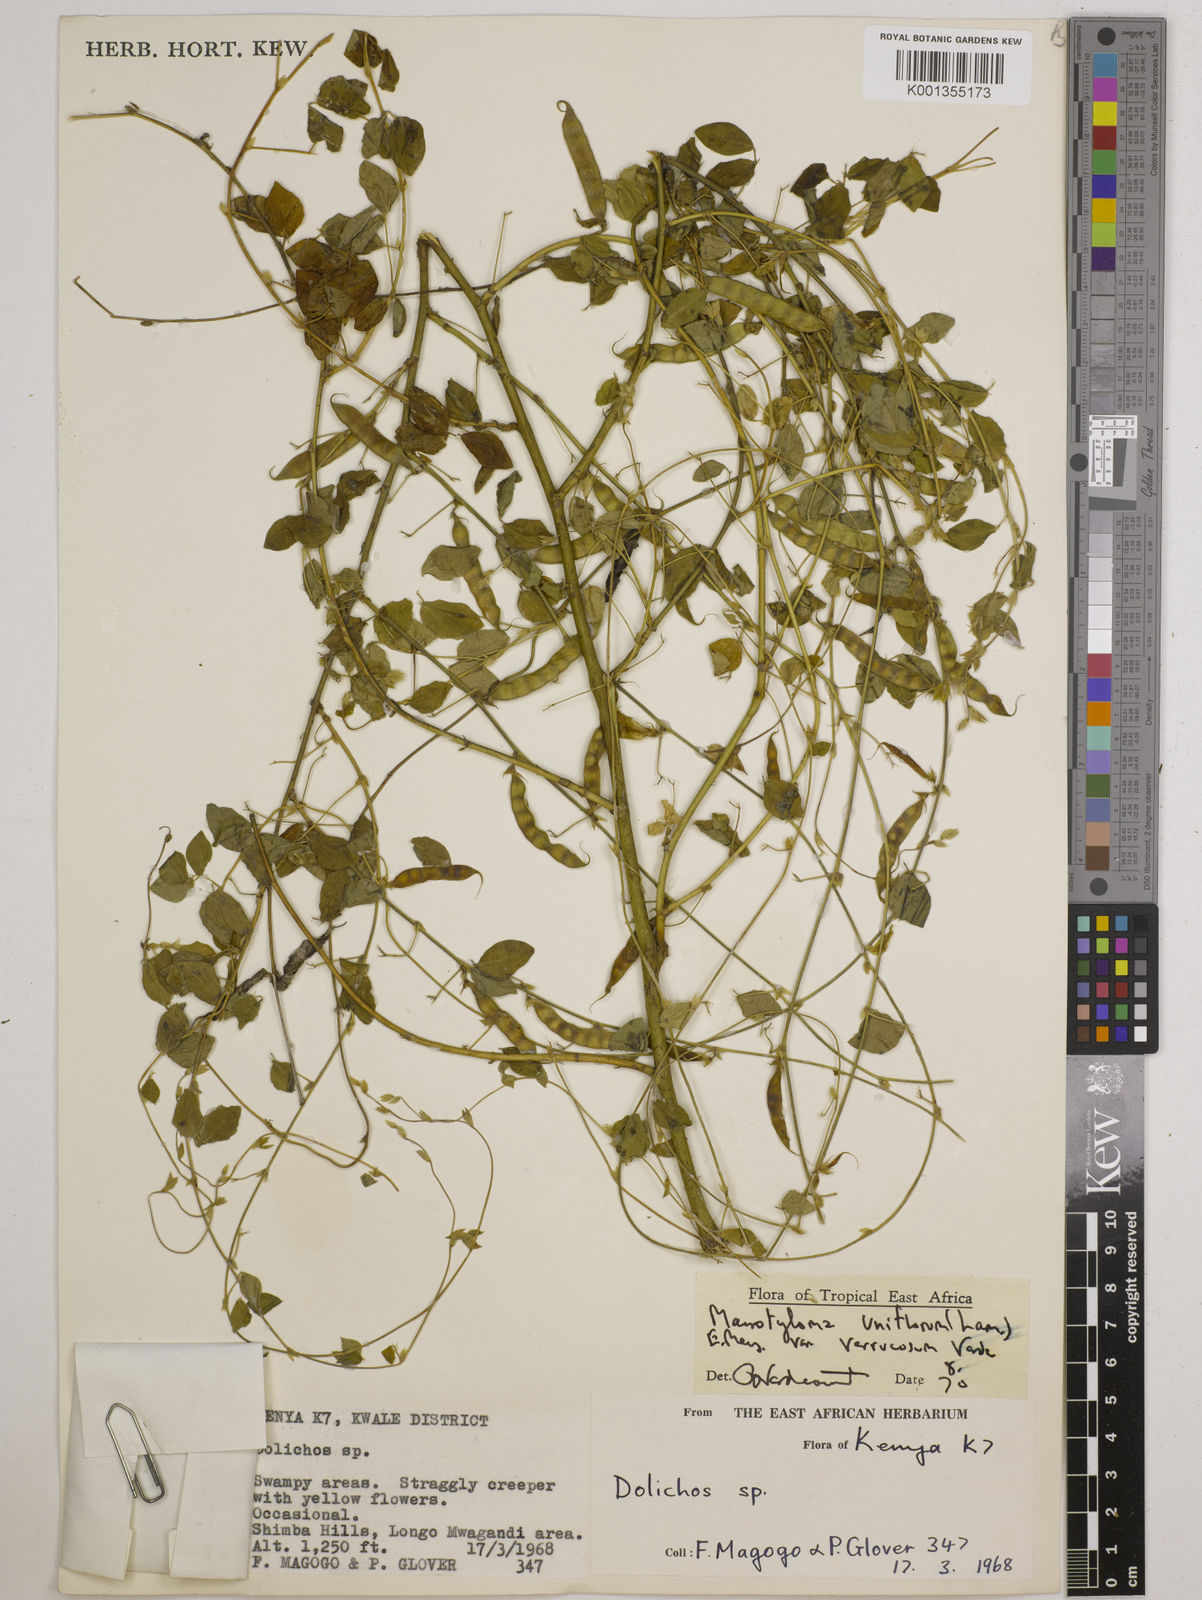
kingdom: Plantae
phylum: Tracheophyta
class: Magnoliopsida
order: Fabales
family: Fabaceae
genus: Macrotyloma
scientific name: Macrotyloma
